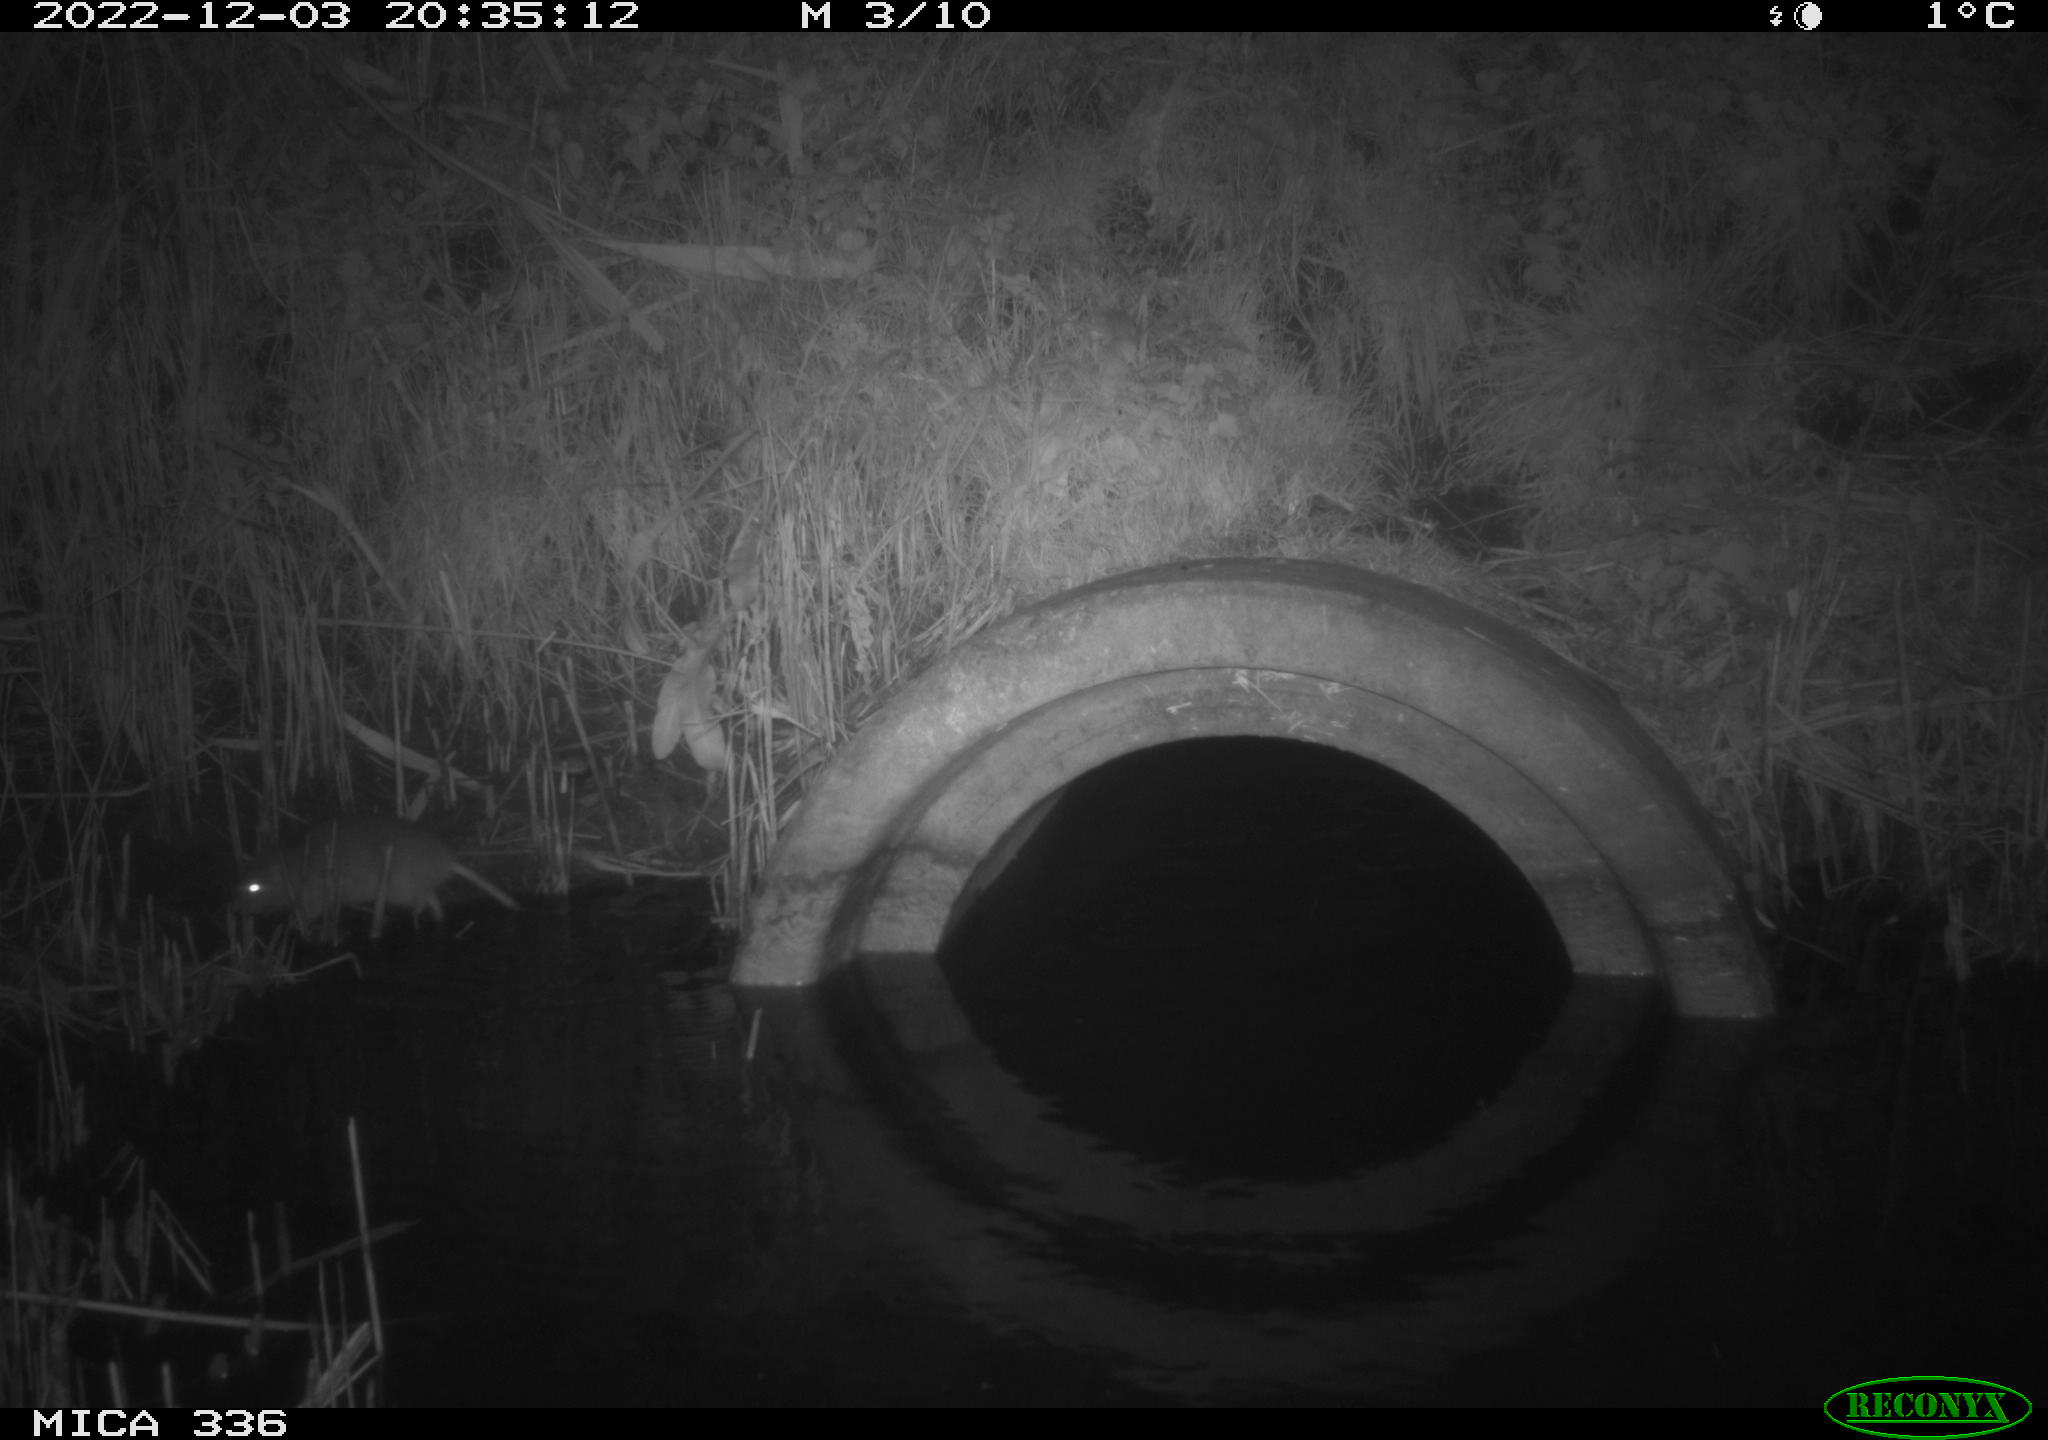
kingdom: Animalia
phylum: Chordata
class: Mammalia
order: Rodentia
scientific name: Rodentia
